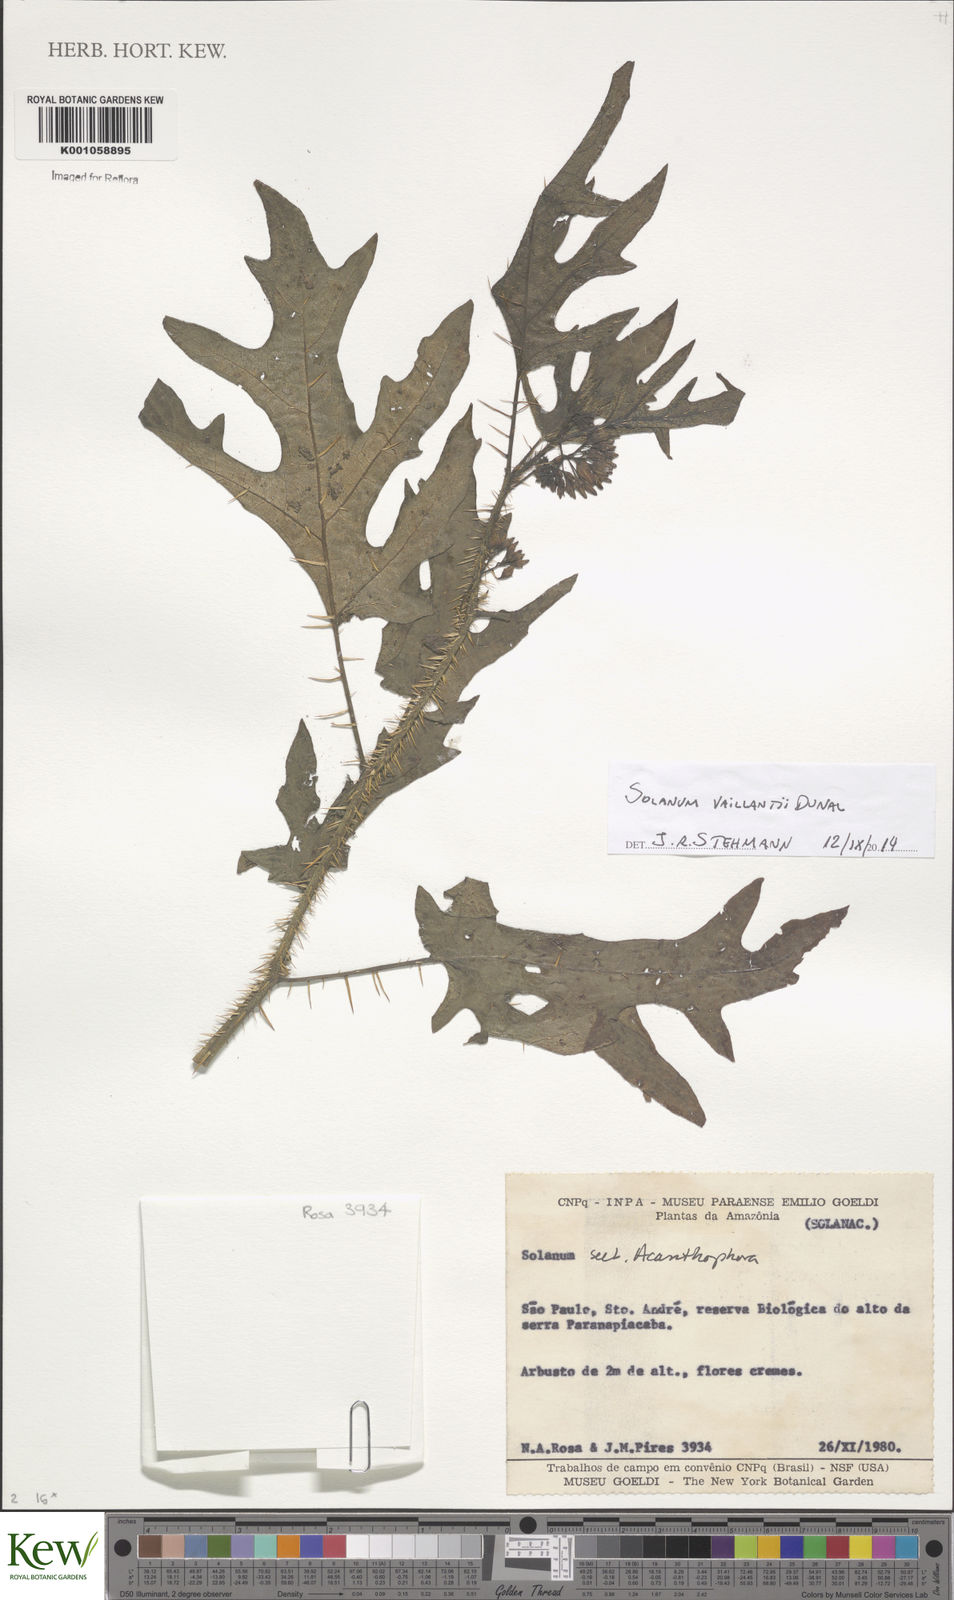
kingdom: Plantae
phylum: Tracheophyta
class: Magnoliopsida
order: Solanales
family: Solanaceae
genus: Solanum
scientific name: Solanum
